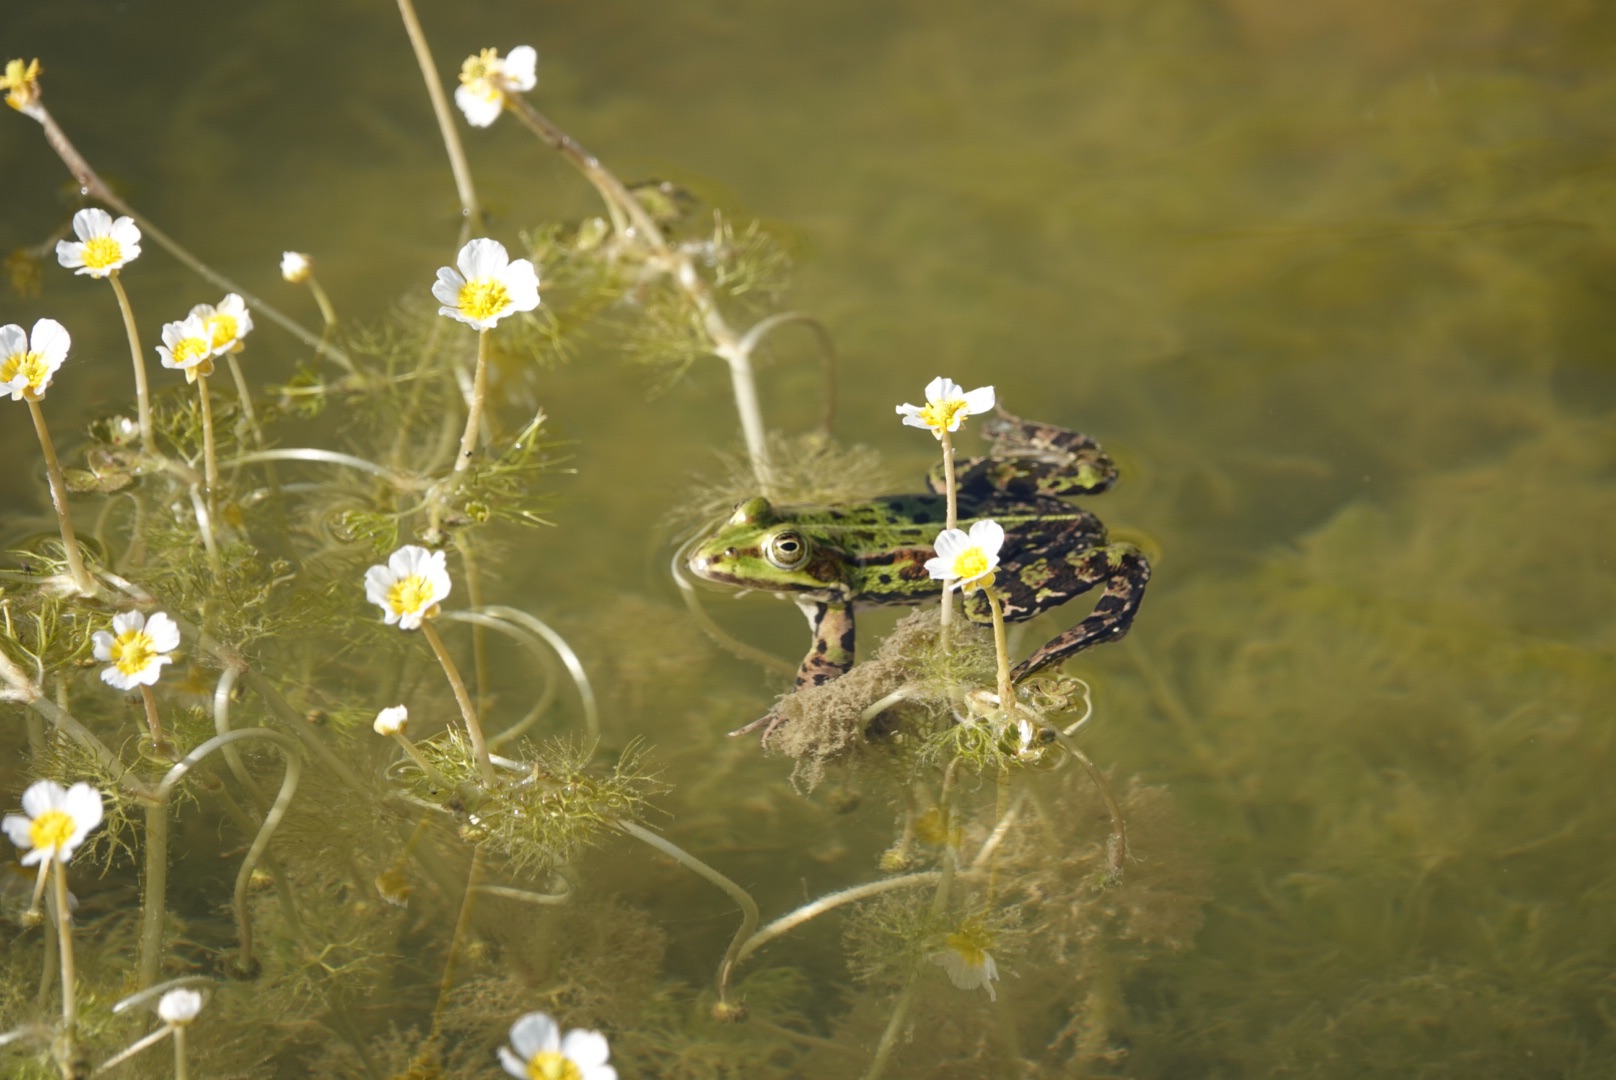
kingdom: Animalia
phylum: Chordata
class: Amphibia
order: Anura
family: Ranidae
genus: Pelophylax
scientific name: Pelophylax lessonae
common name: Grøn frø
